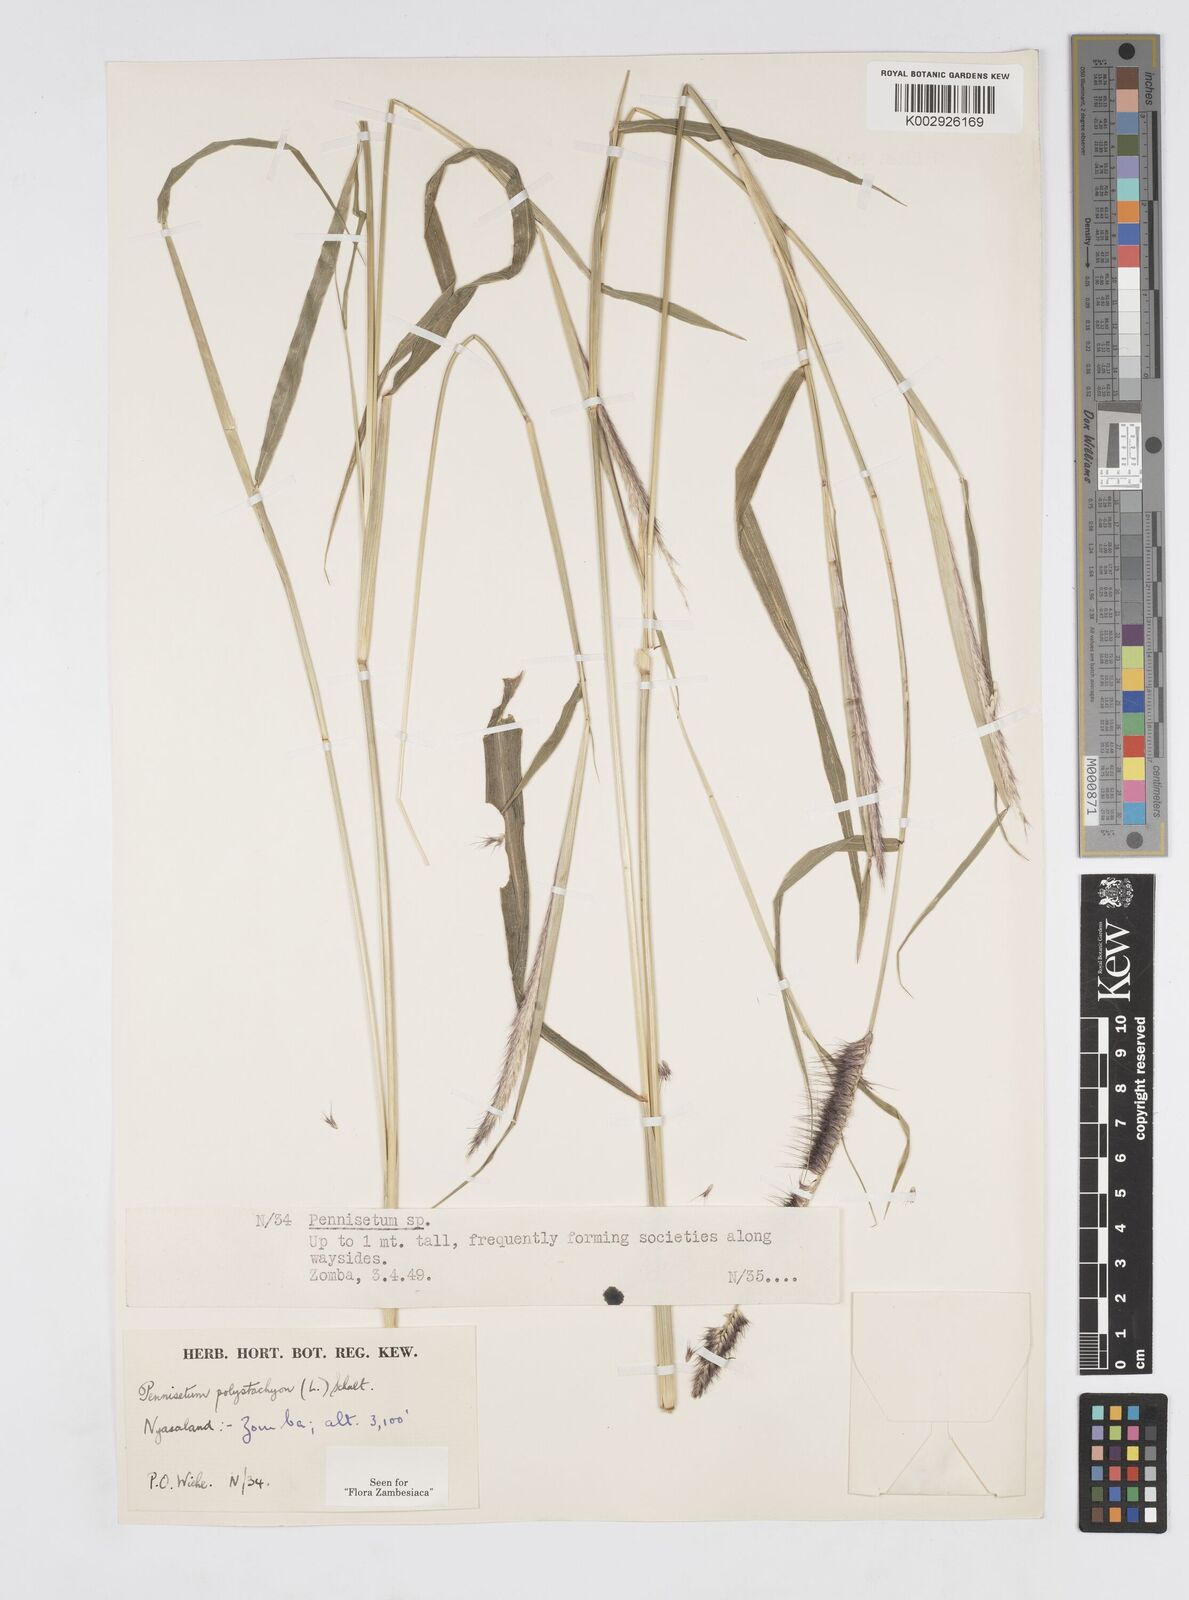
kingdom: Plantae
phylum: Tracheophyta
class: Liliopsida
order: Poales
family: Poaceae
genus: Setaria
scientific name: Setaria parviflora
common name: Knotroot bristle-grass
